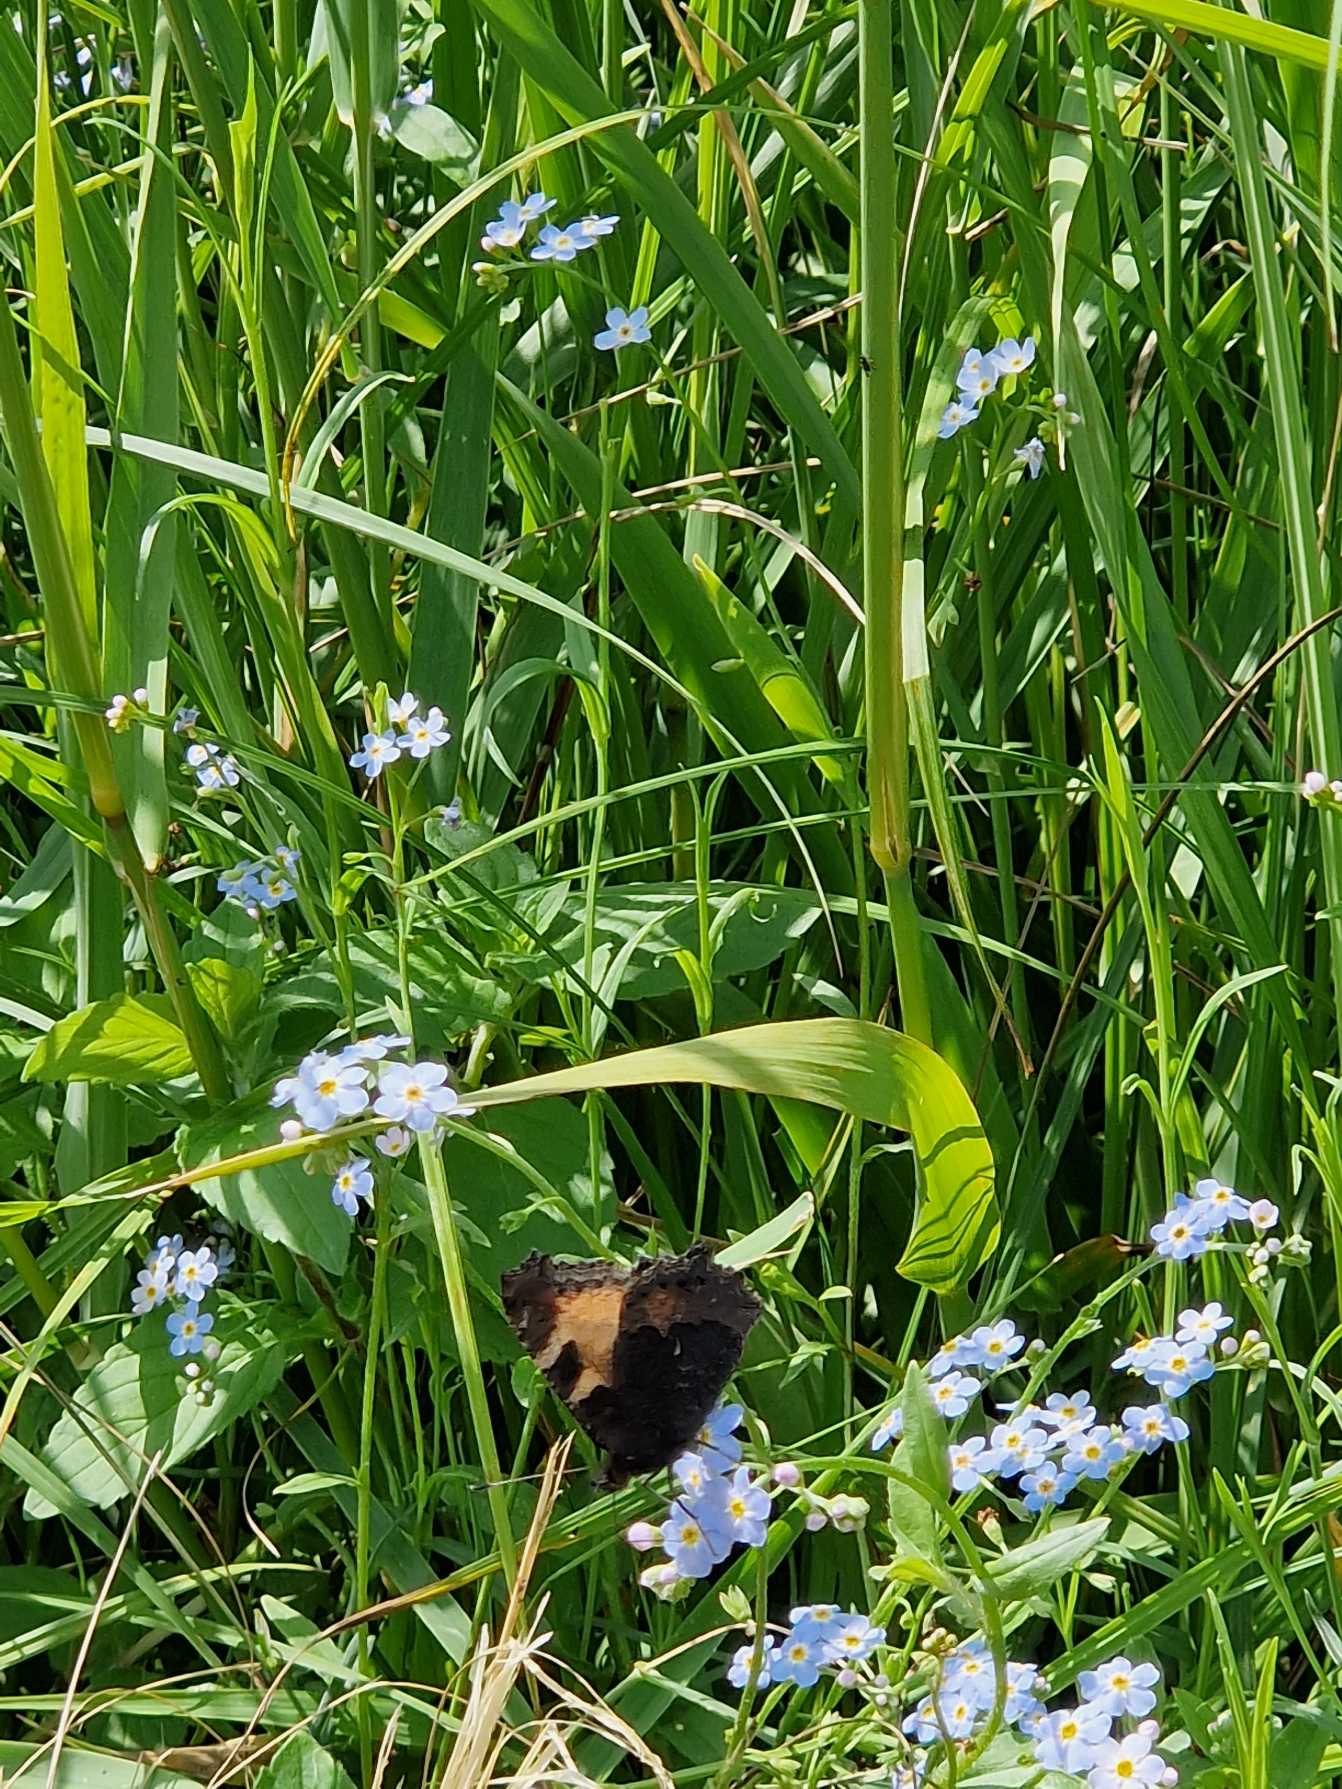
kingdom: Animalia
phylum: Arthropoda
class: Insecta
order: Lepidoptera
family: Nymphalidae
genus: Aglais
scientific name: Aglais urticae
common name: Nældens takvinge
